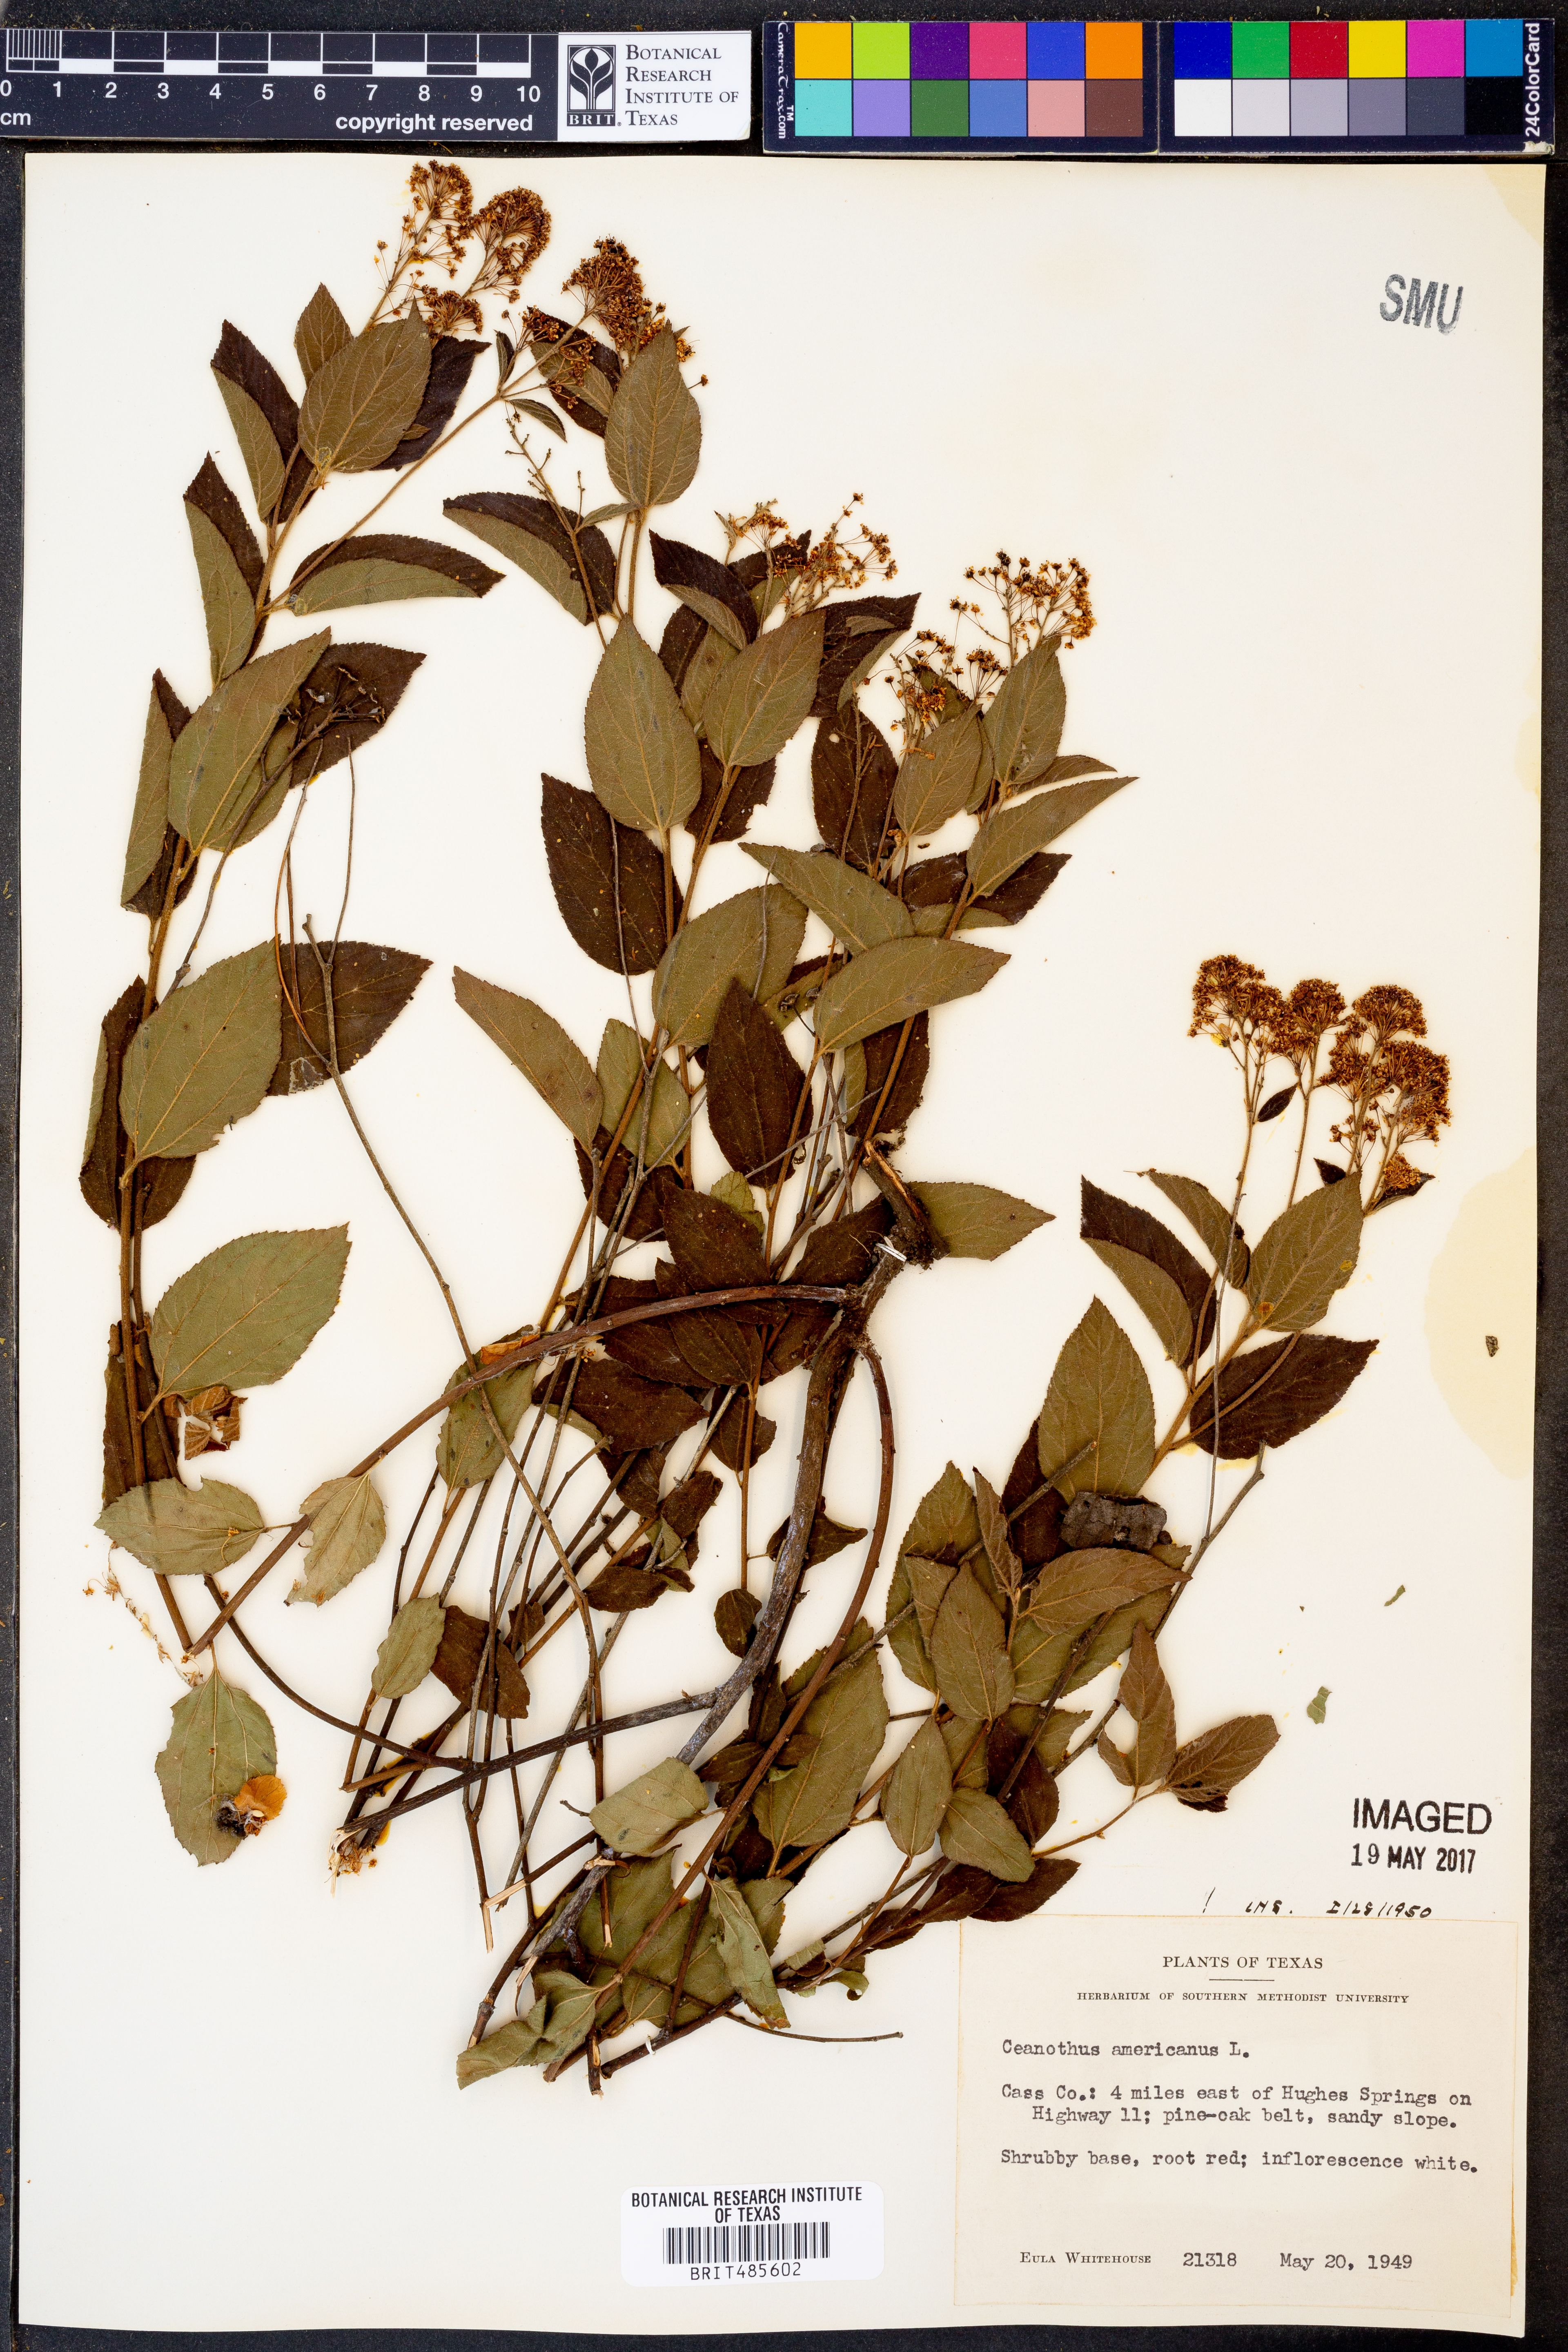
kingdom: Plantae
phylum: Tracheophyta
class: Magnoliopsida
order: Rosales
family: Rhamnaceae
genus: Ceanothus
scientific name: Ceanothus americanus
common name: Redroot
